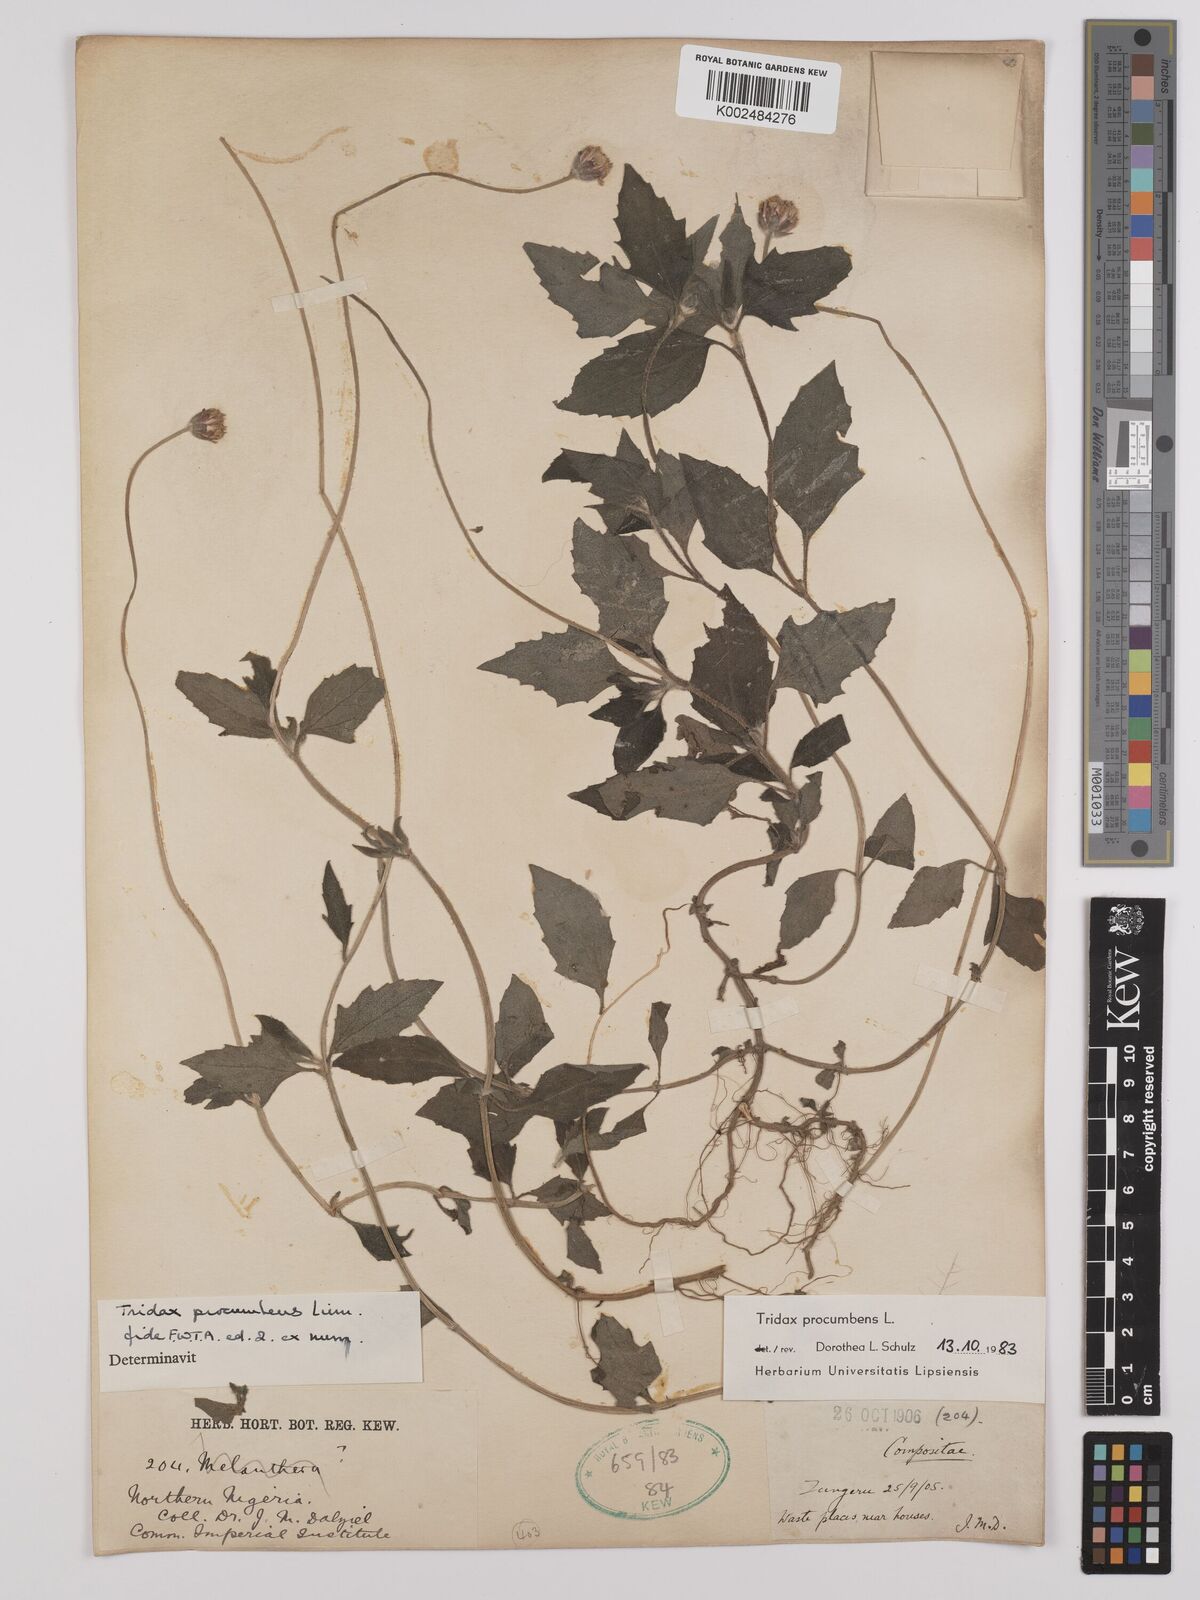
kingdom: Plantae
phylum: Tracheophyta
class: Magnoliopsida
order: Asterales
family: Asteraceae
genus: Tridax
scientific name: Tridax procumbens
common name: Coatbuttons
